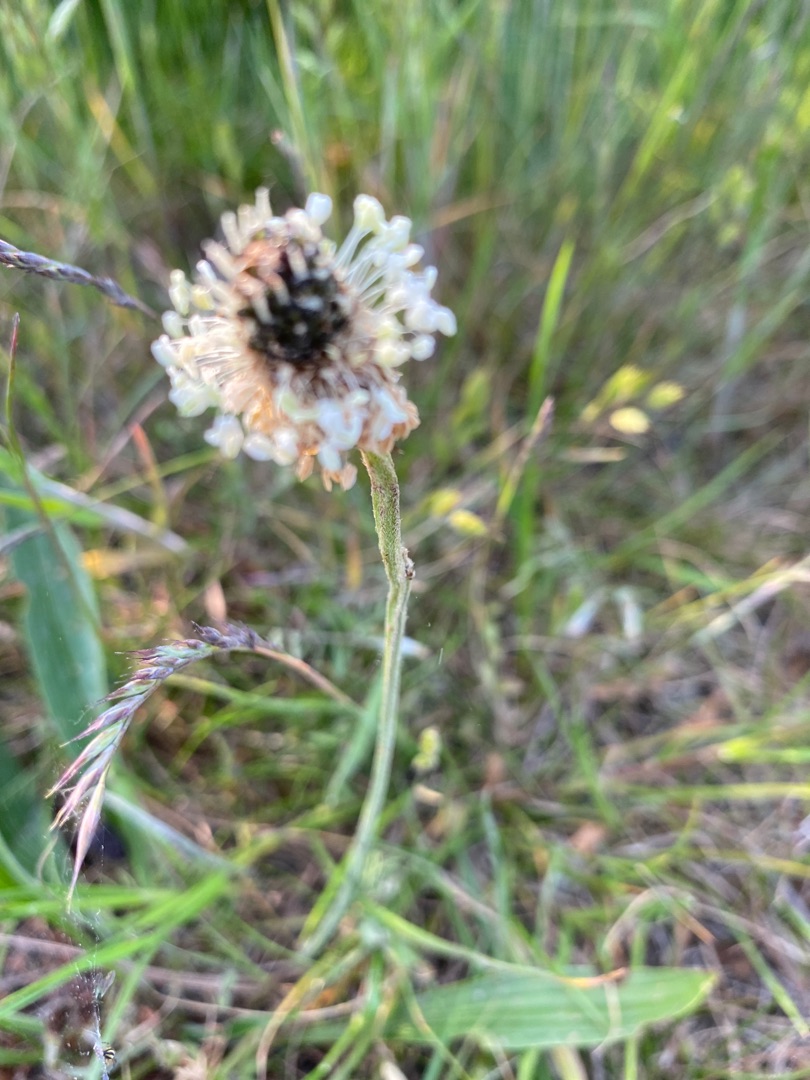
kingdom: Plantae
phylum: Tracheophyta
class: Magnoliopsida
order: Lamiales
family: Plantaginaceae
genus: Plantago
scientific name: Plantago lanceolata
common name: Lancet-vejbred
